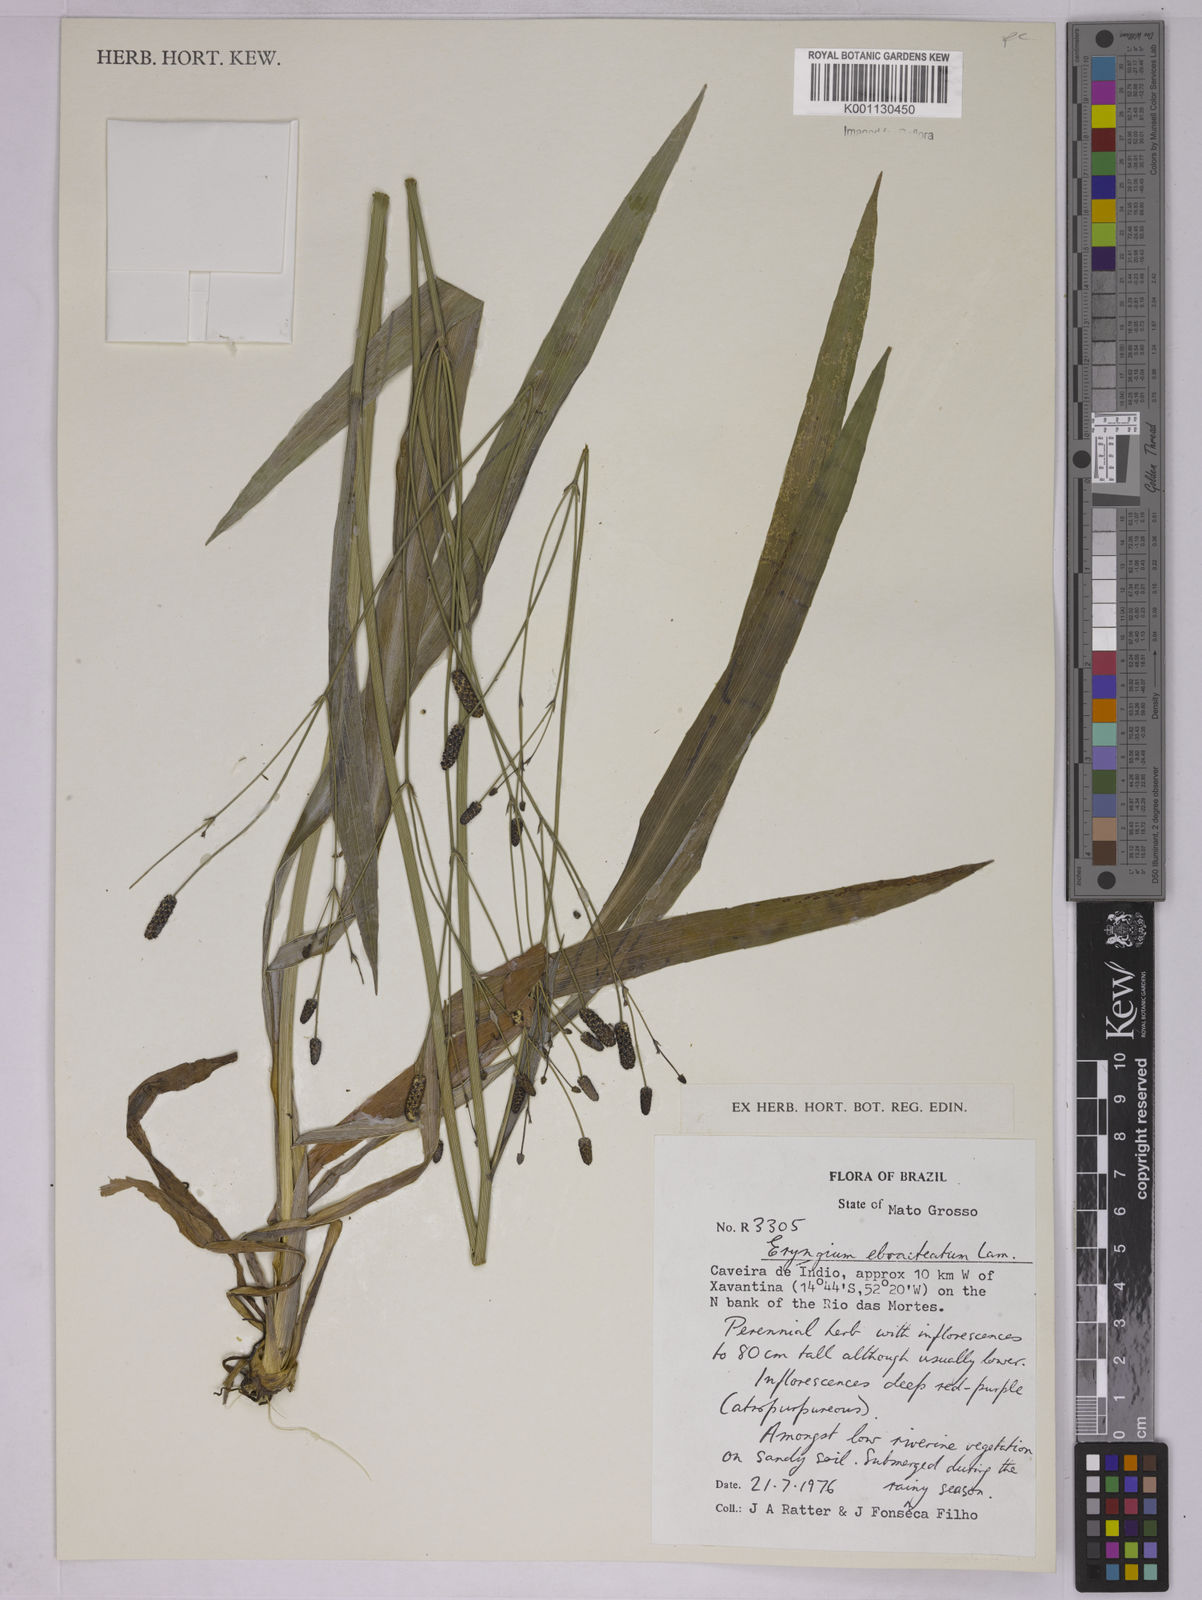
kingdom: Plantae
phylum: Tracheophyta
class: Magnoliopsida
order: Apiales
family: Apiaceae
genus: Eryngium
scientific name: Eryngium ebracteatum
